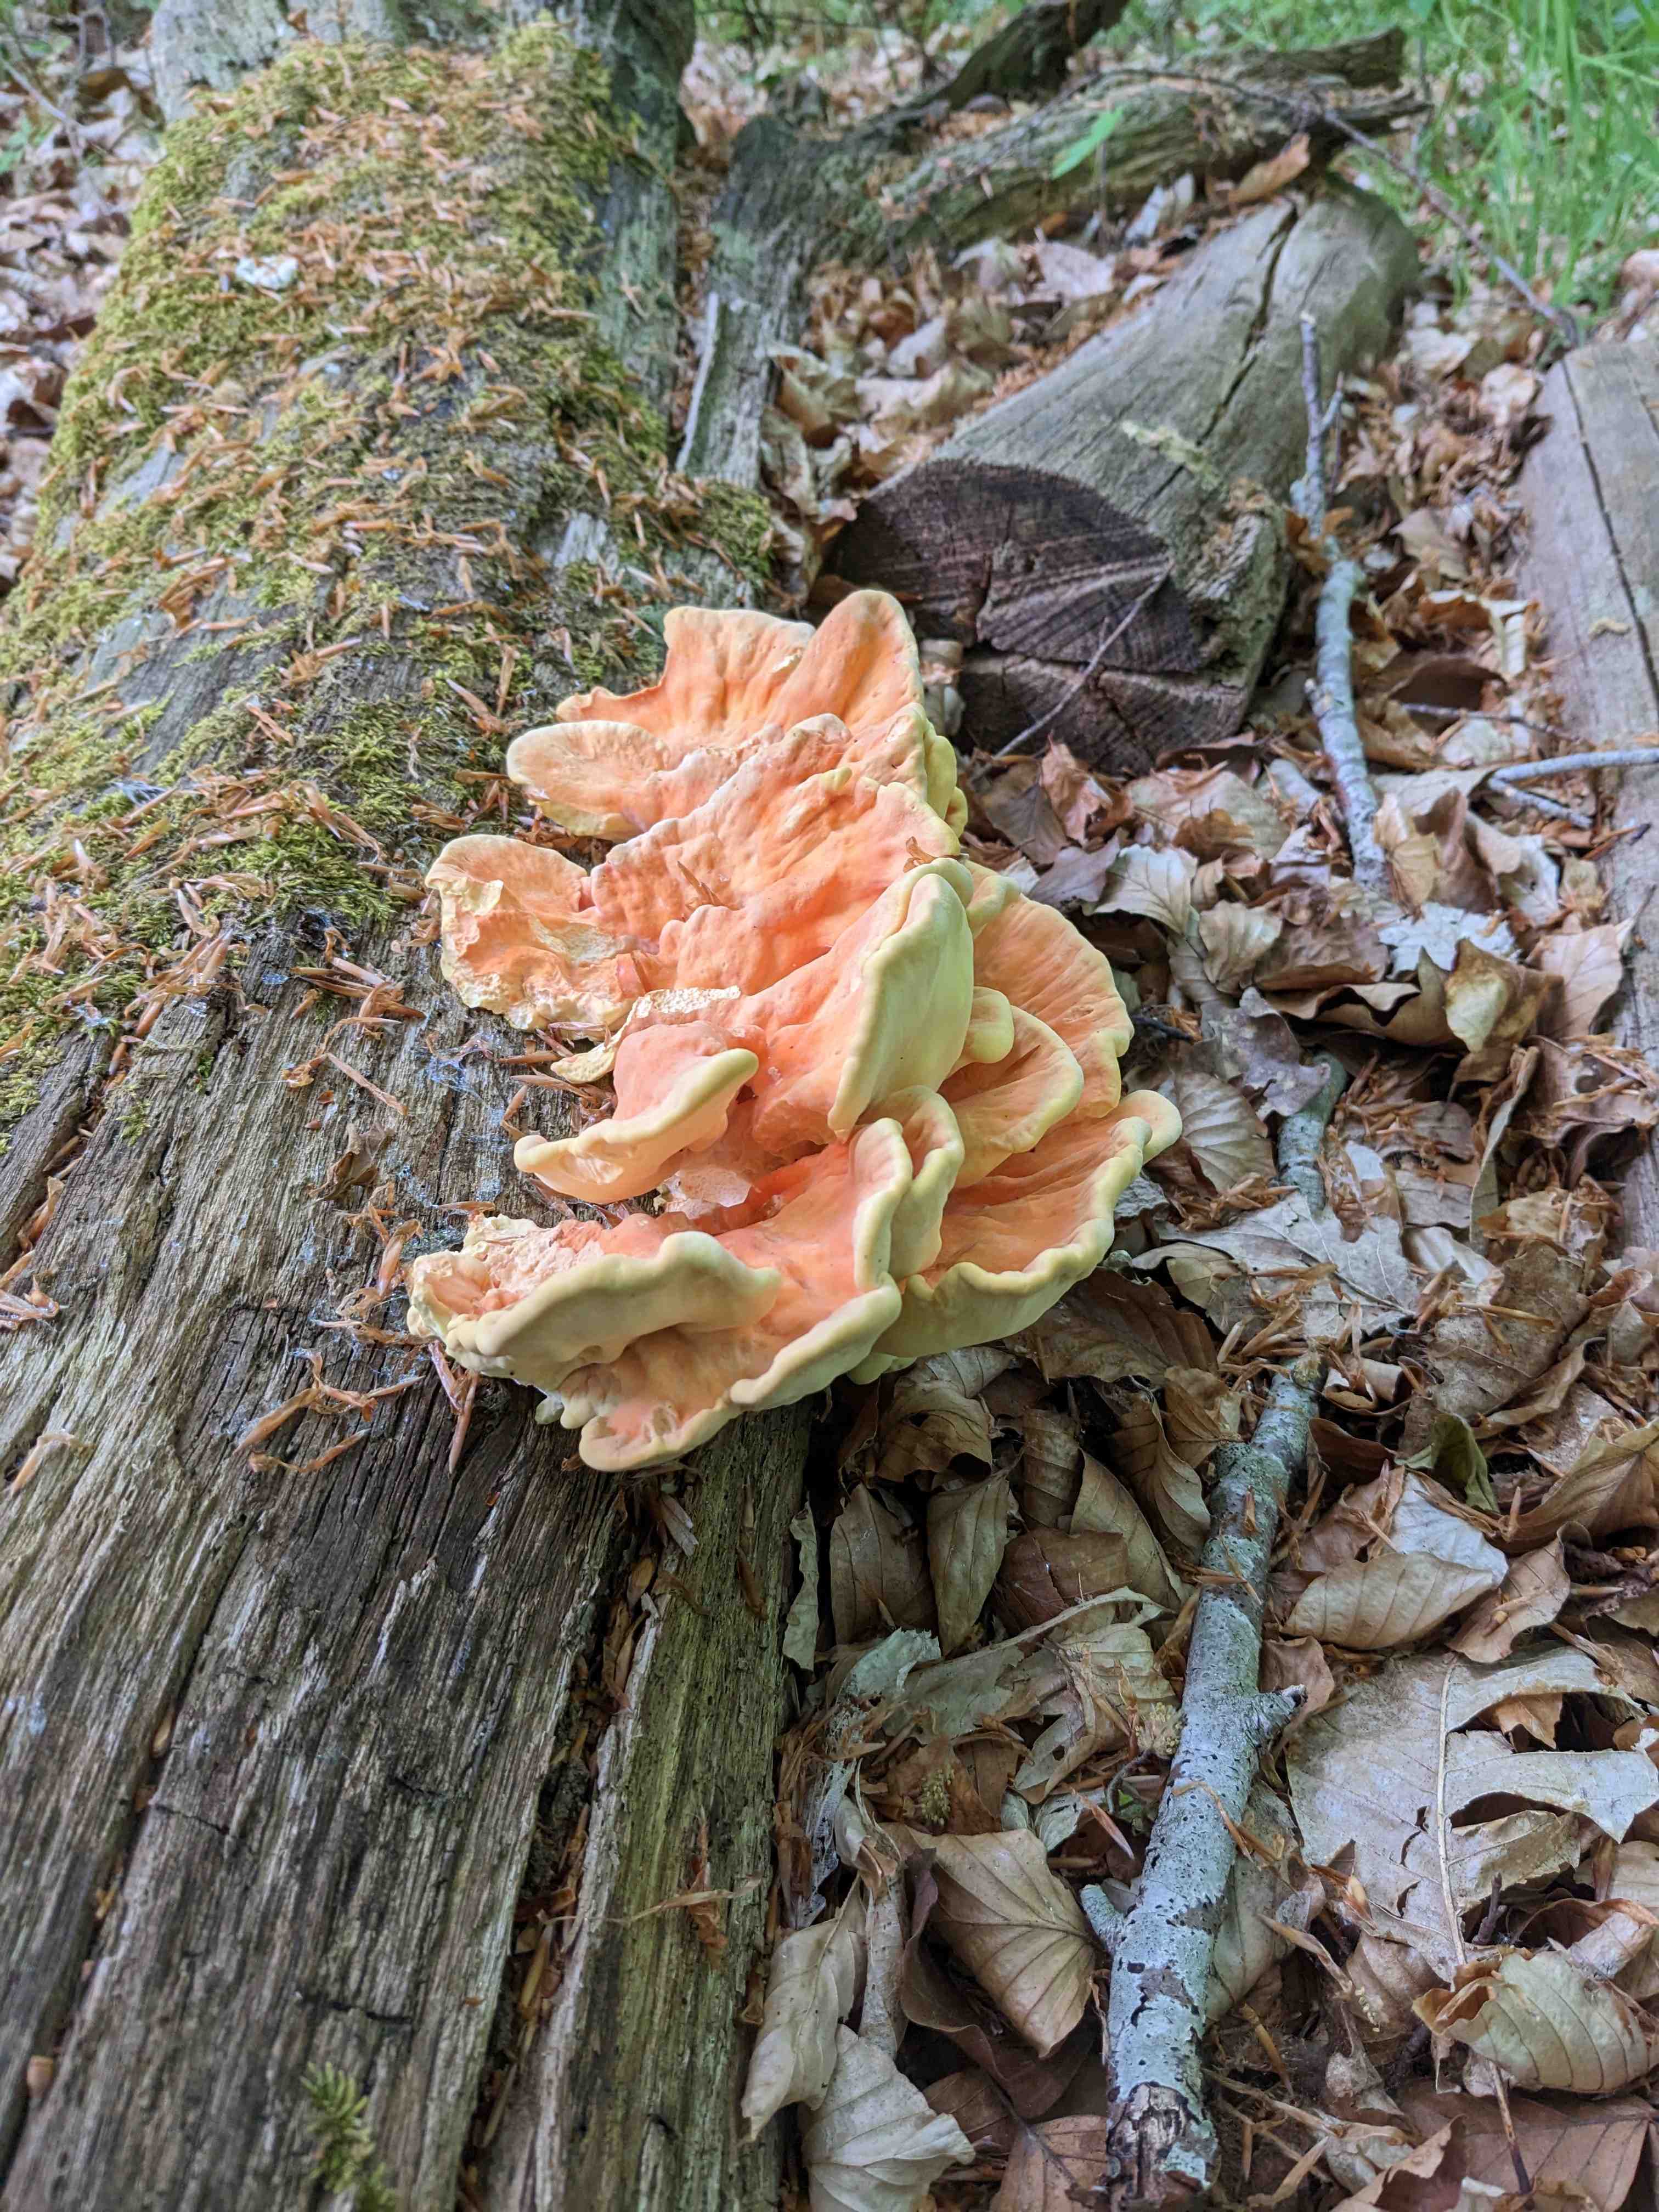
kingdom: Fungi
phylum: Basidiomycota
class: Agaricomycetes
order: Polyporales
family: Laetiporaceae
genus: Laetiporus
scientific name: Laetiporus sulphureus
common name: svovlporesvamp
